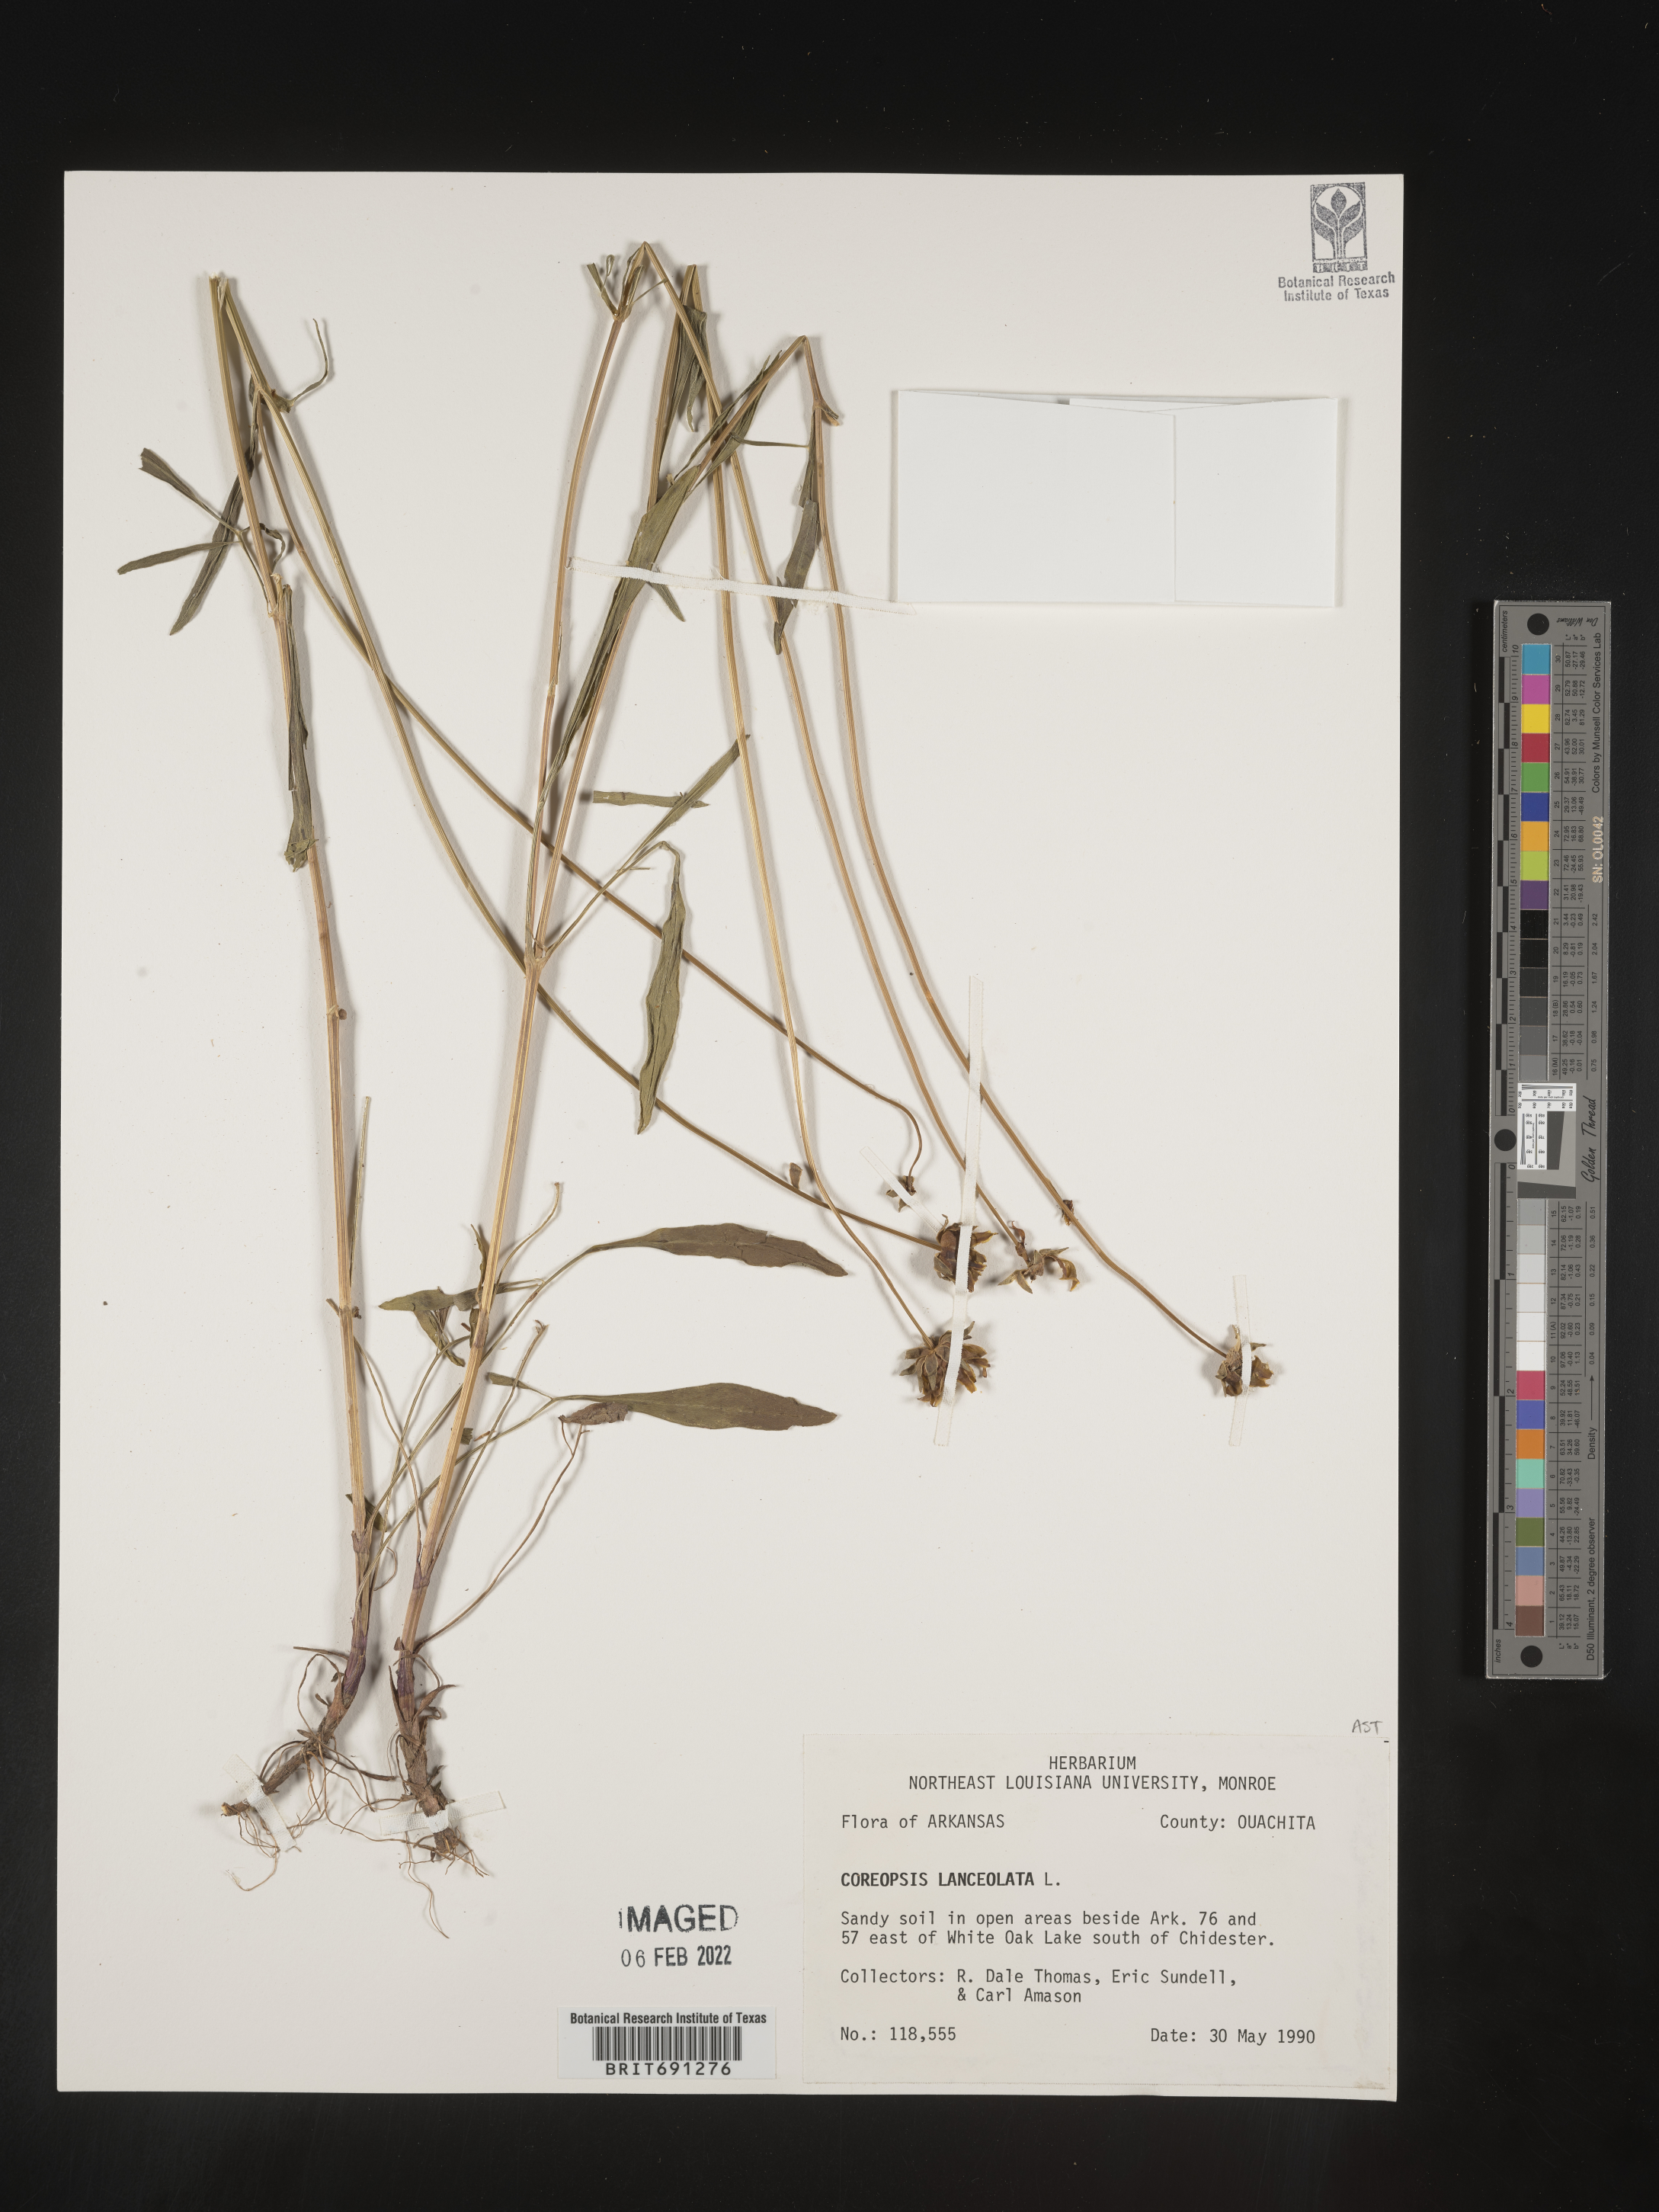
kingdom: Plantae
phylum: Tracheophyta
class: Magnoliopsida
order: Asterales
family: Asteraceae
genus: Coreopsis
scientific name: Coreopsis lanceolata
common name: Garden coreopsis
